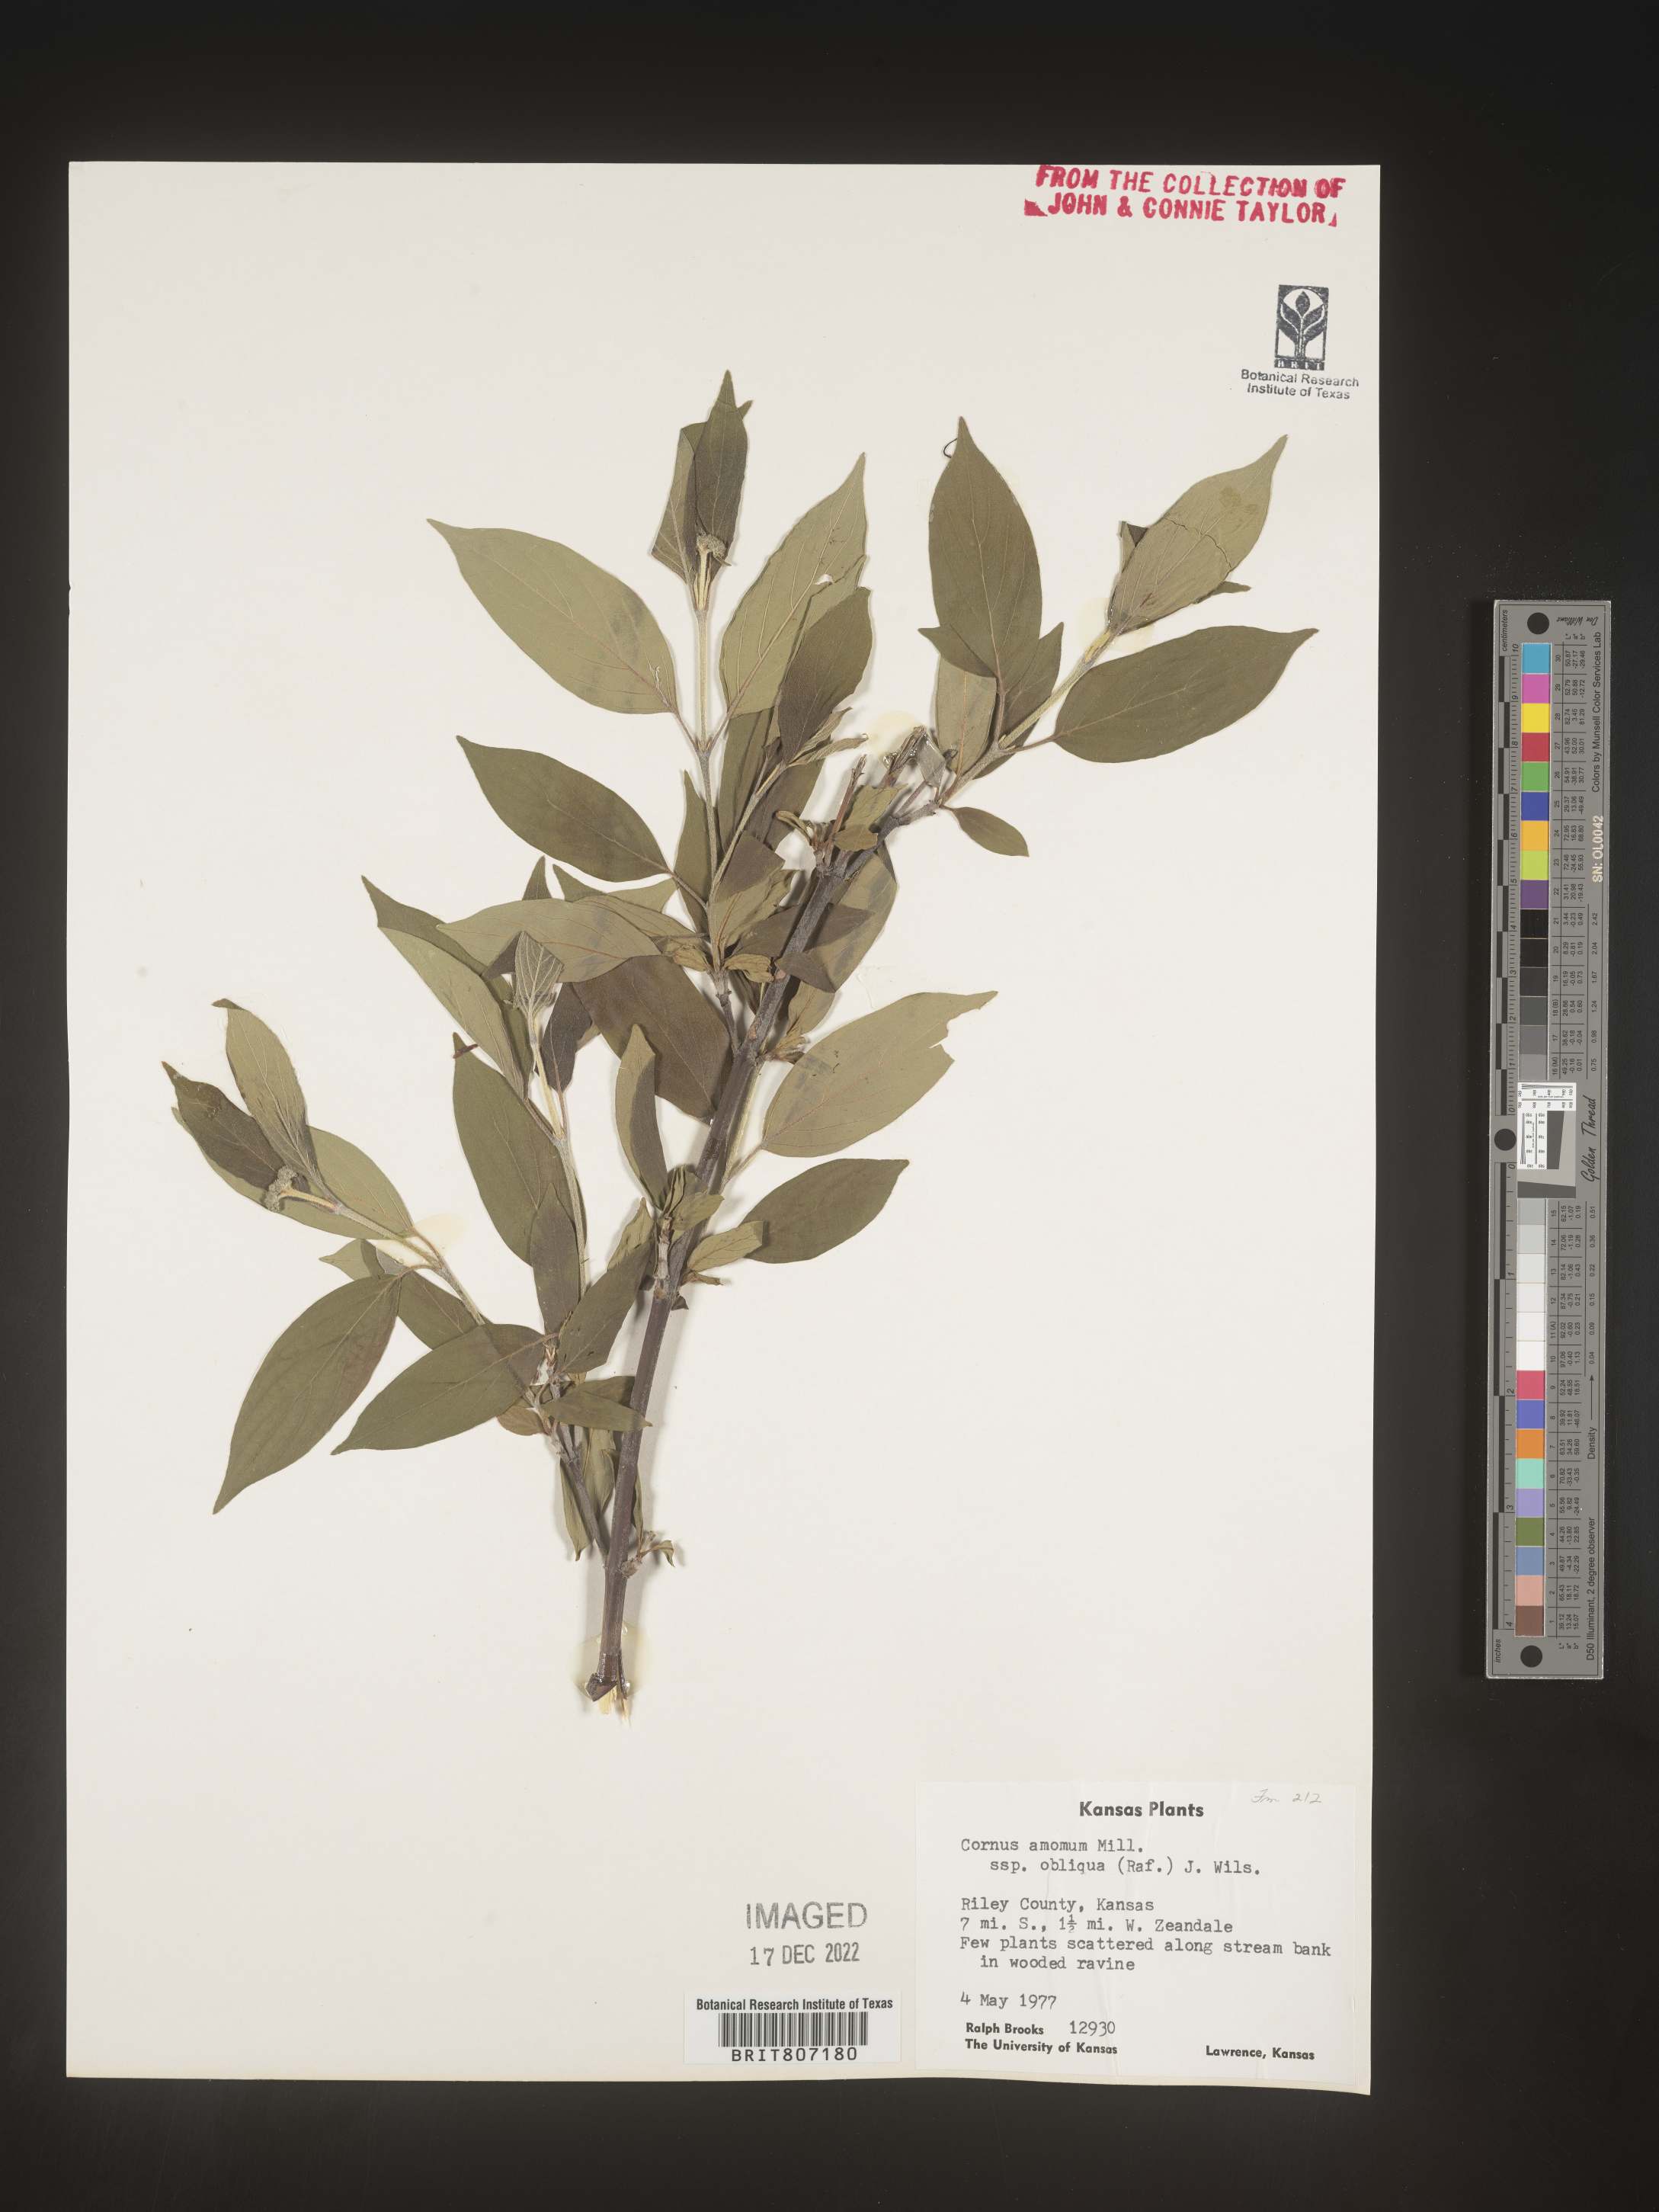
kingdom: Plantae
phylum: Tracheophyta
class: Magnoliopsida
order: Cornales
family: Cornaceae
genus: Cornus
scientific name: Cornus amomum
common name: Silky dogwood
